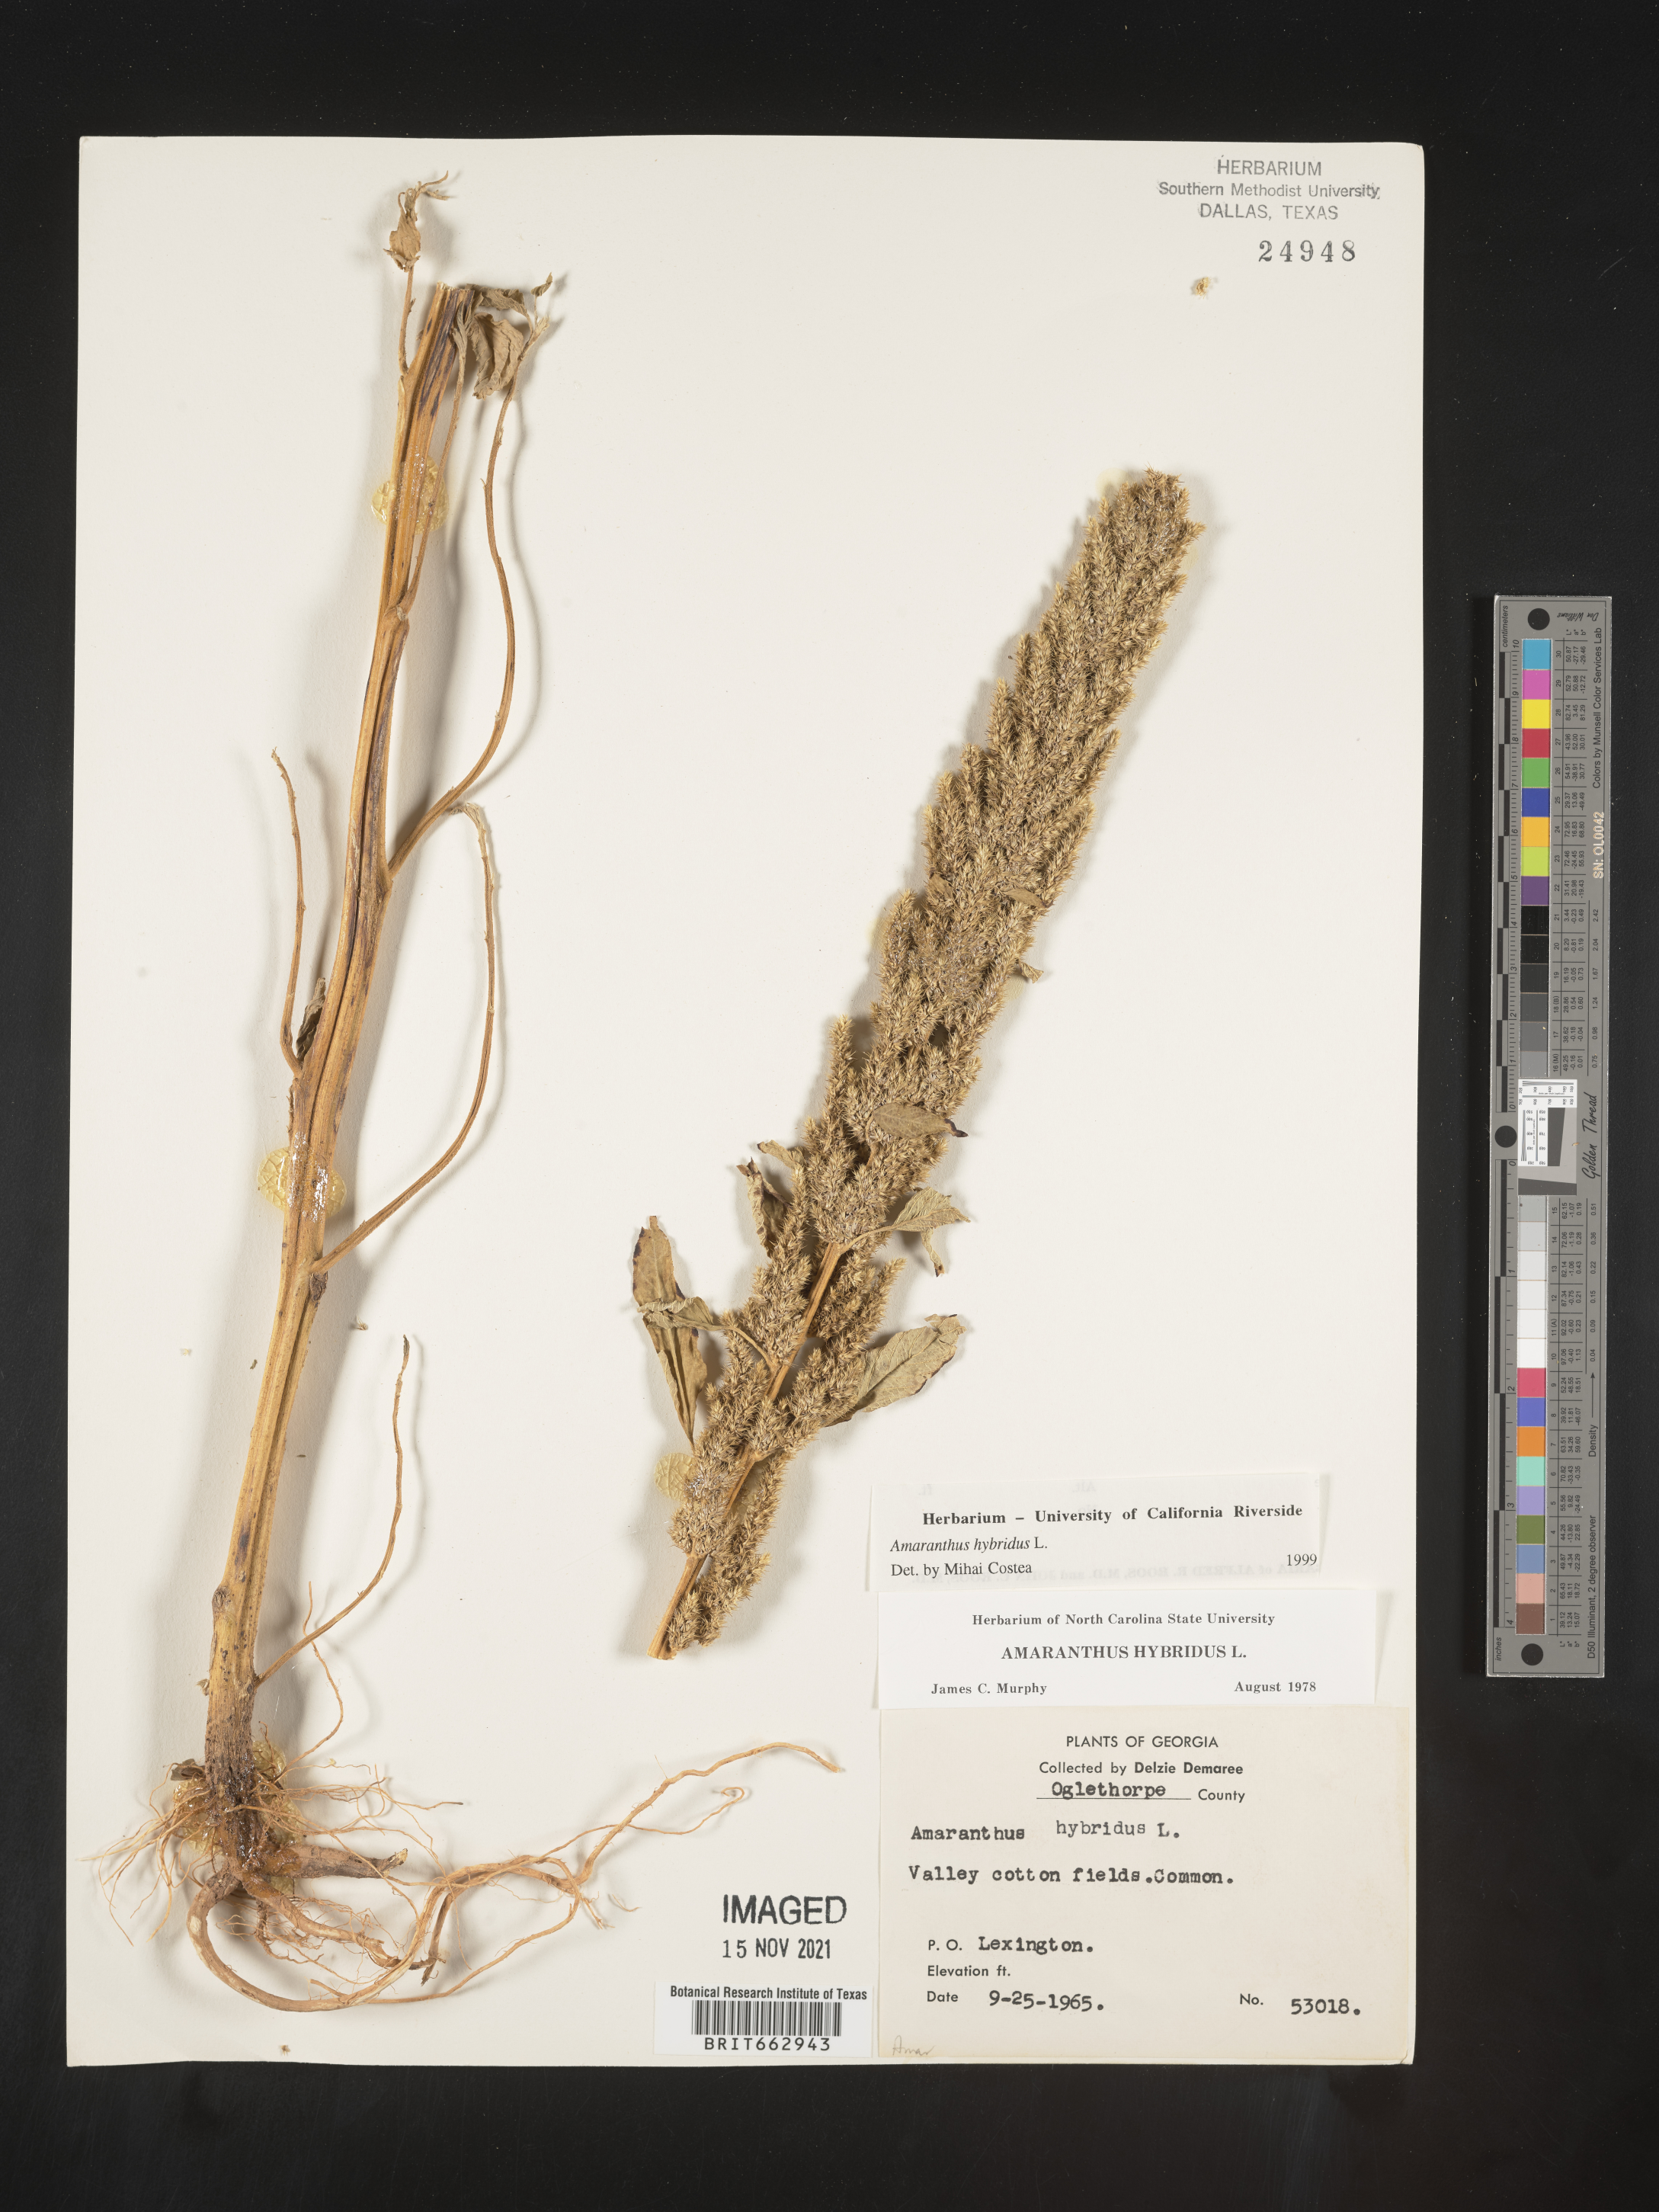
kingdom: Plantae
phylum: Tracheophyta
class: Magnoliopsida
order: Caryophyllales
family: Amaranthaceae
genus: Amaranthus
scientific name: Amaranthus hybridus
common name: Green amaranth
